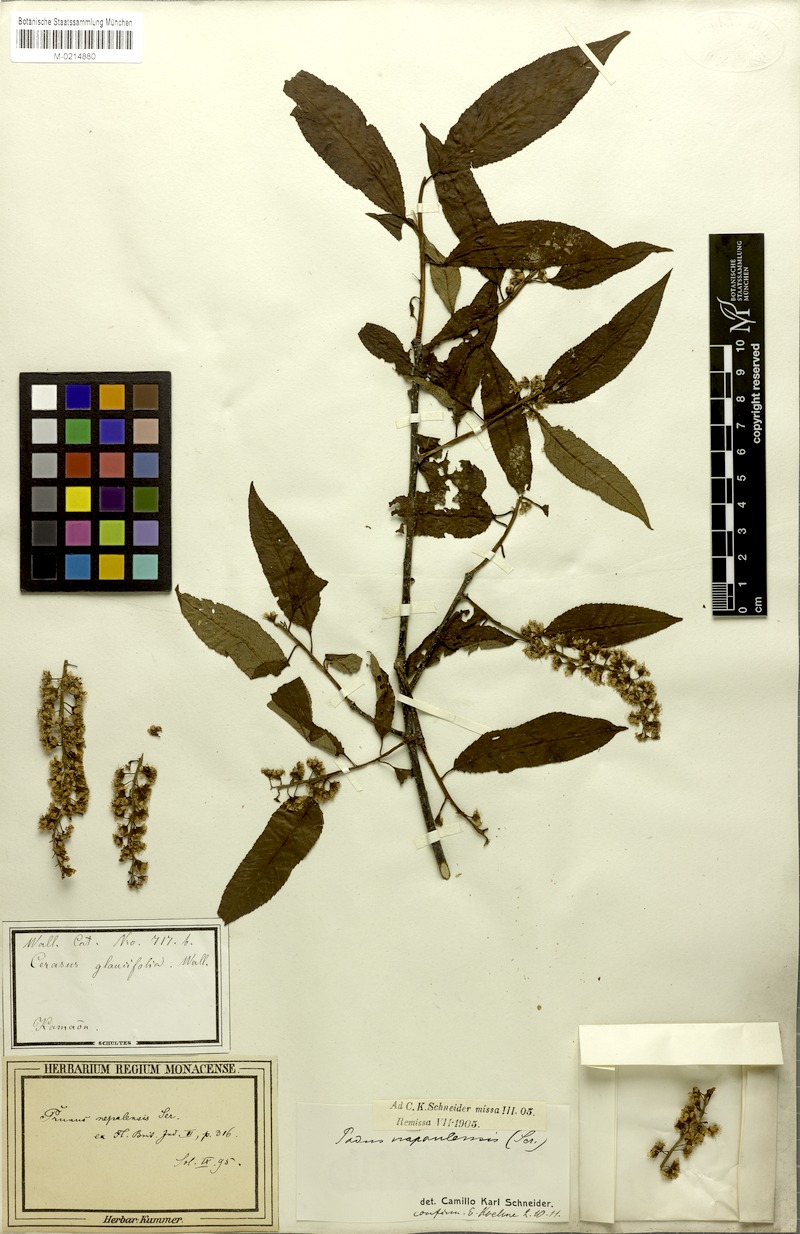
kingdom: Plantae
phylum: Tracheophyta
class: Magnoliopsida
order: Rosales
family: Rosaceae
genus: Prunus
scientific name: Prunus napaulensis
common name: Khasia cherry
